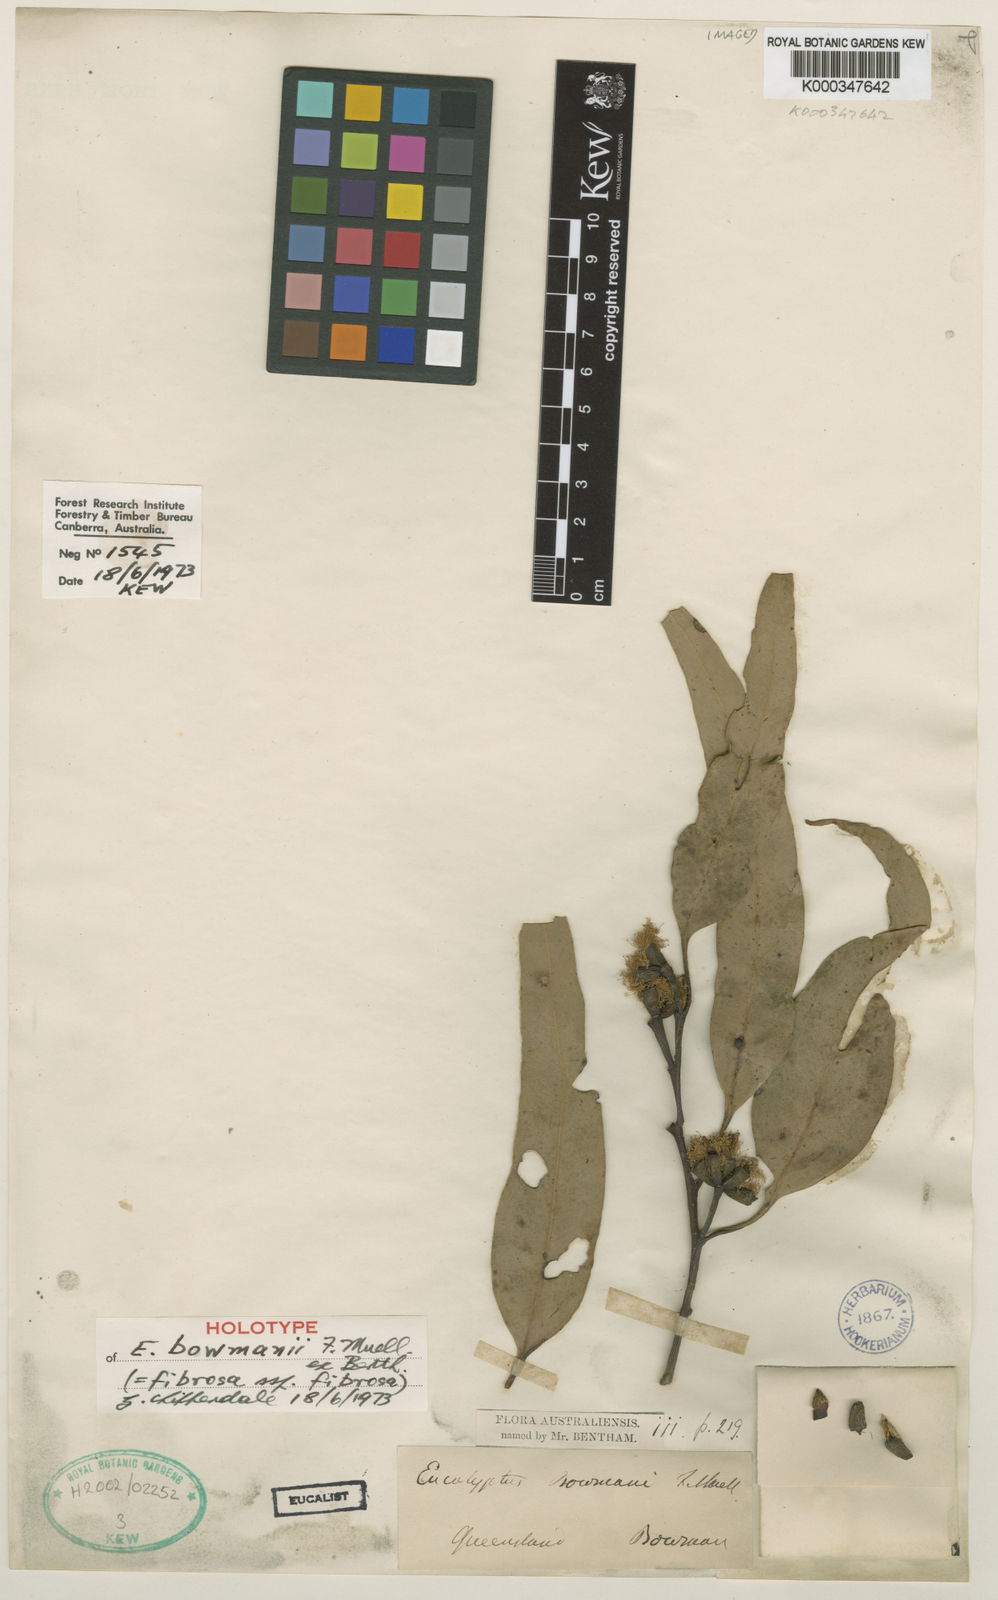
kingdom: Plantae
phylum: Tracheophyta
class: Magnoliopsida
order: Myrtales
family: Myrtaceae
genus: Eucalyptus
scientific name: Eucalyptus fibrosa
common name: Red ironbark
